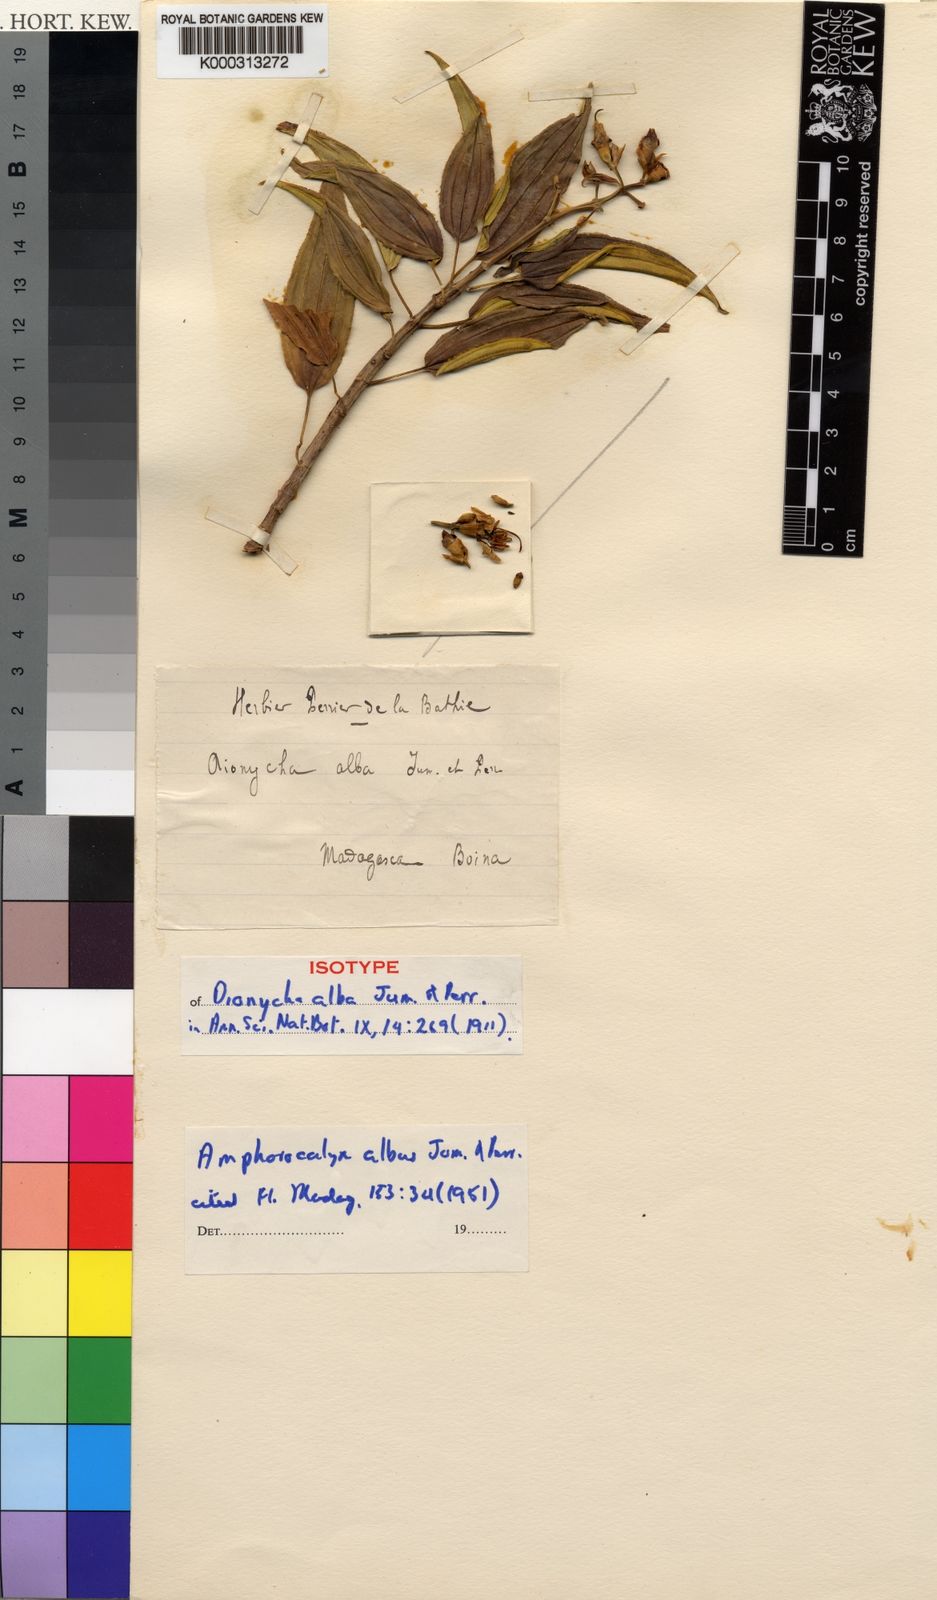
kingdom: Plantae
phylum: Tracheophyta
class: Magnoliopsida
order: Myrtales
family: Melastomataceae
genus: Amphorocalyx
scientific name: Amphorocalyx albus
